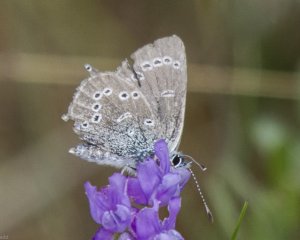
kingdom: Animalia
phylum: Arthropoda
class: Insecta
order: Lepidoptera
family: Lycaenidae
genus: Glaucopsyche
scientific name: Glaucopsyche lygdamus
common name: Silvery Blue
